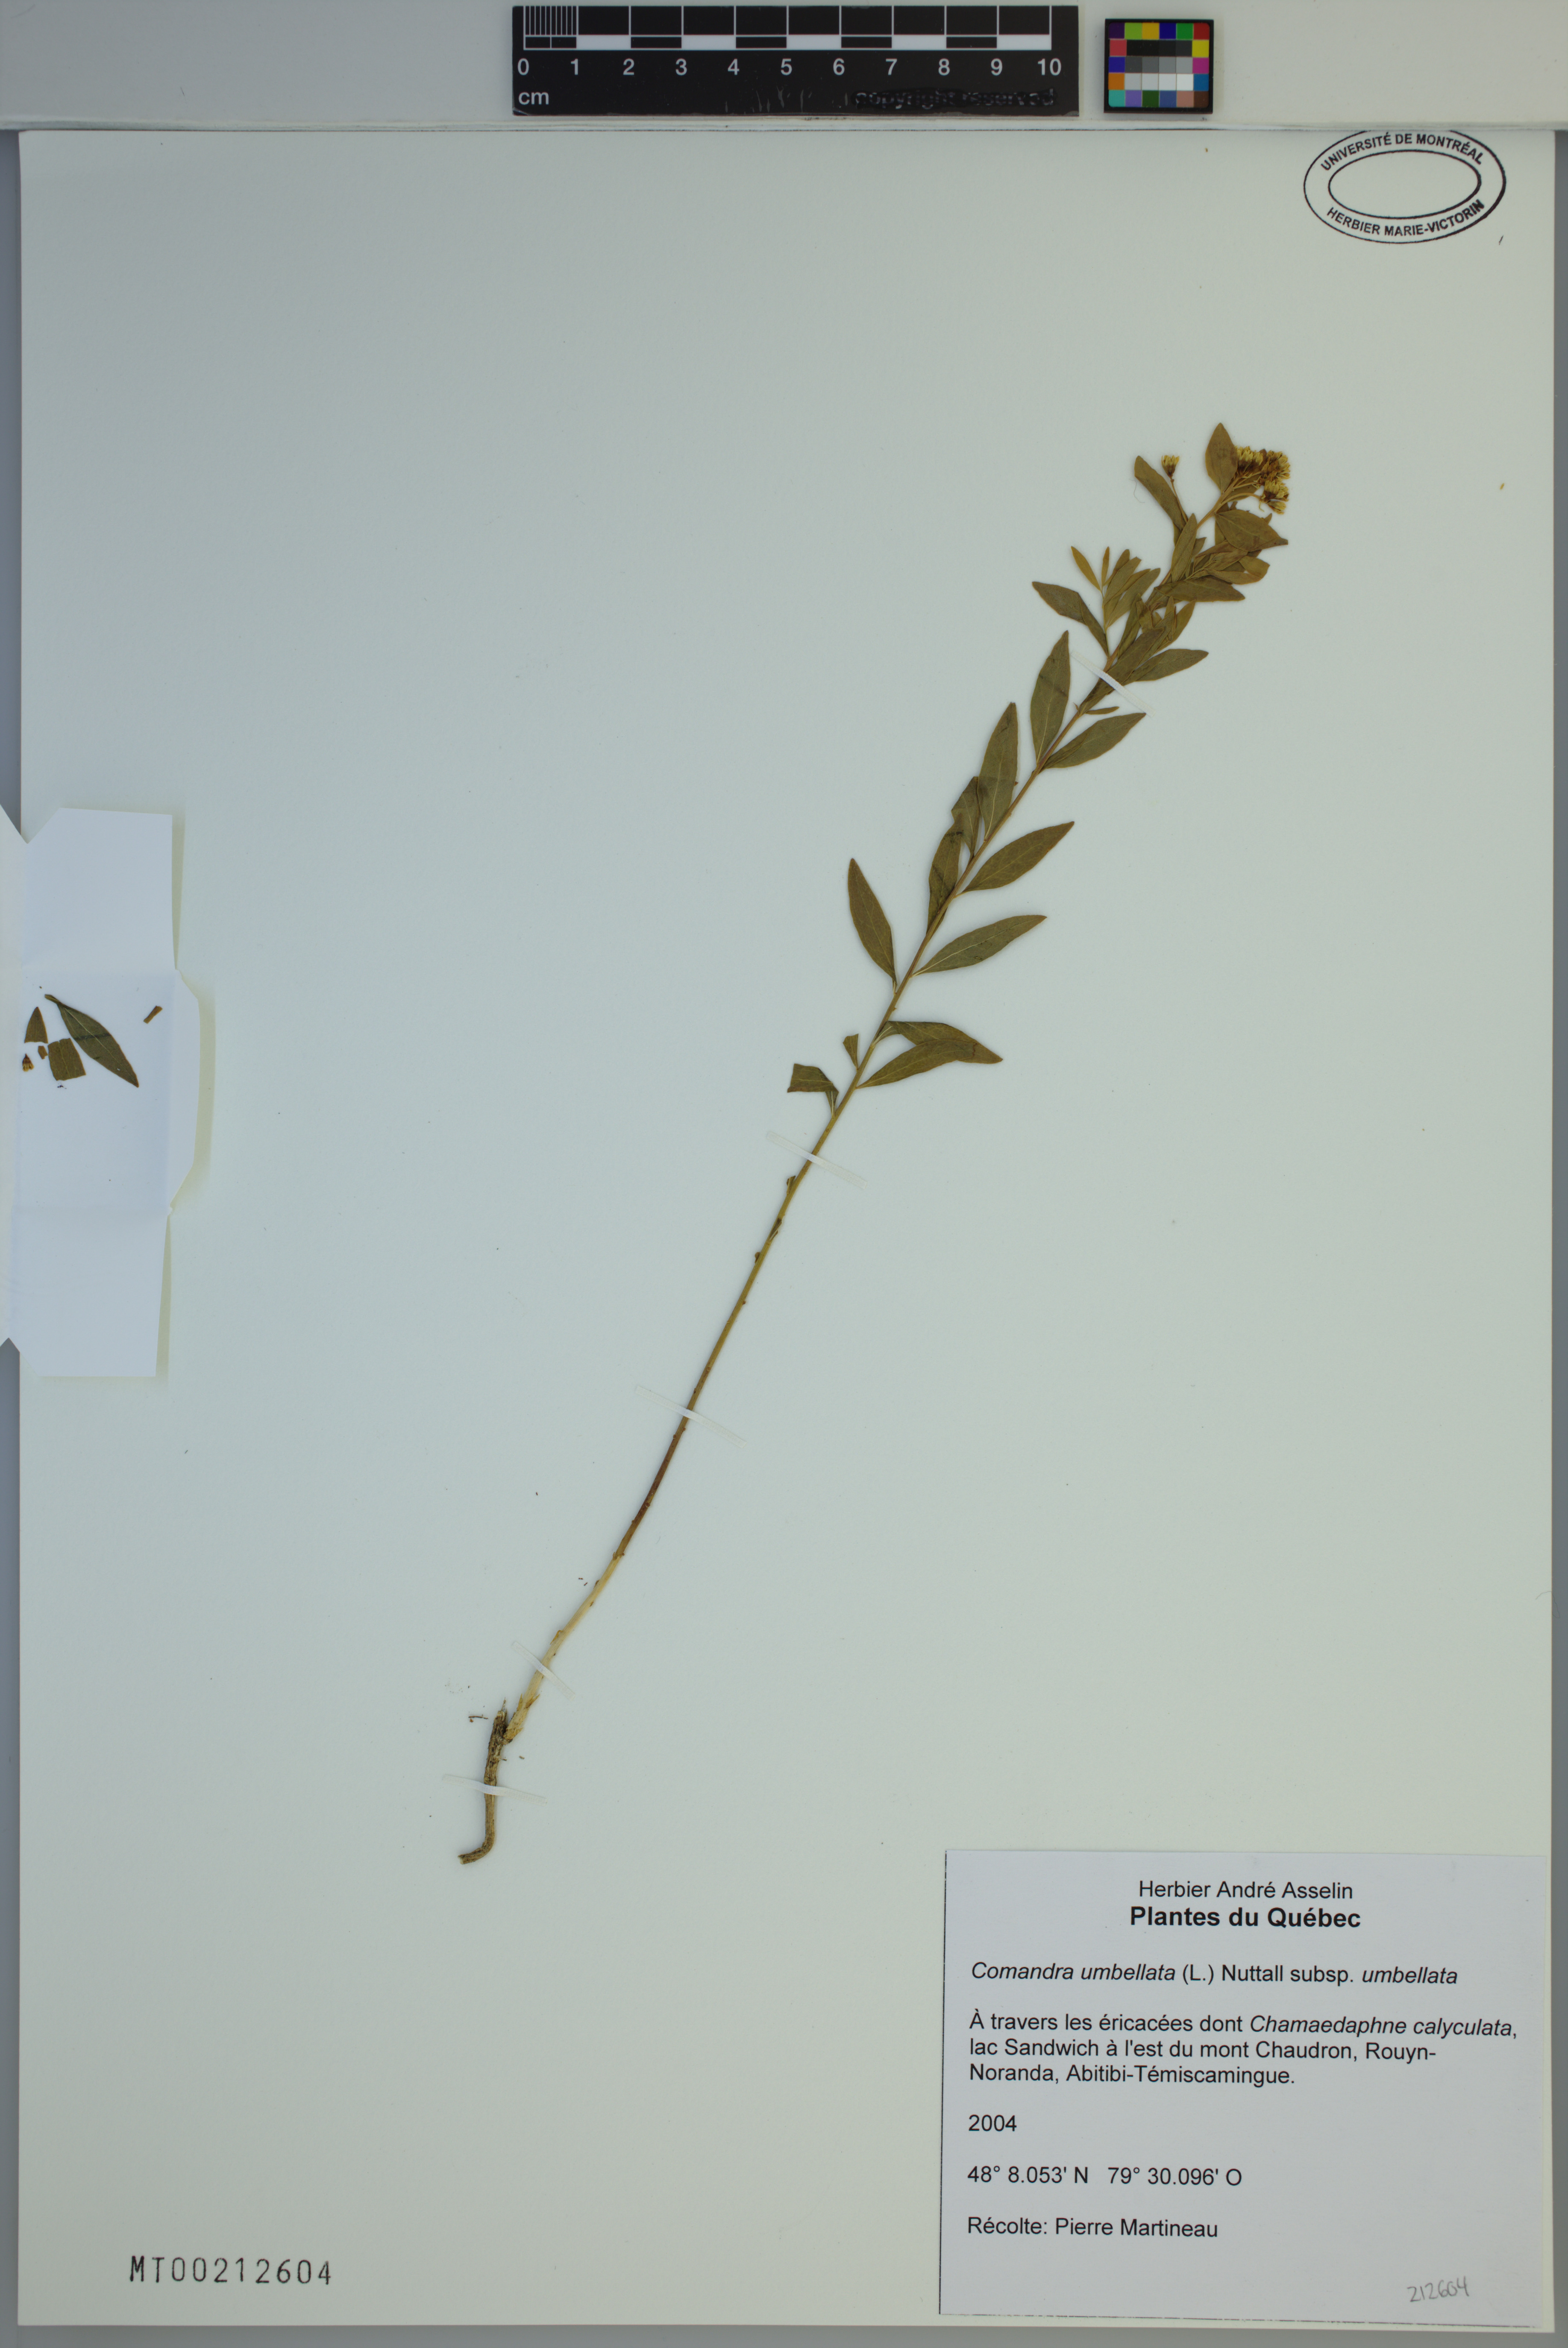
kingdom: Plantae
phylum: Tracheophyta
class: Magnoliopsida
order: Santalales
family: Comandraceae
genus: Comandra
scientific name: Comandra umbellata
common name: Bastard toadflax
